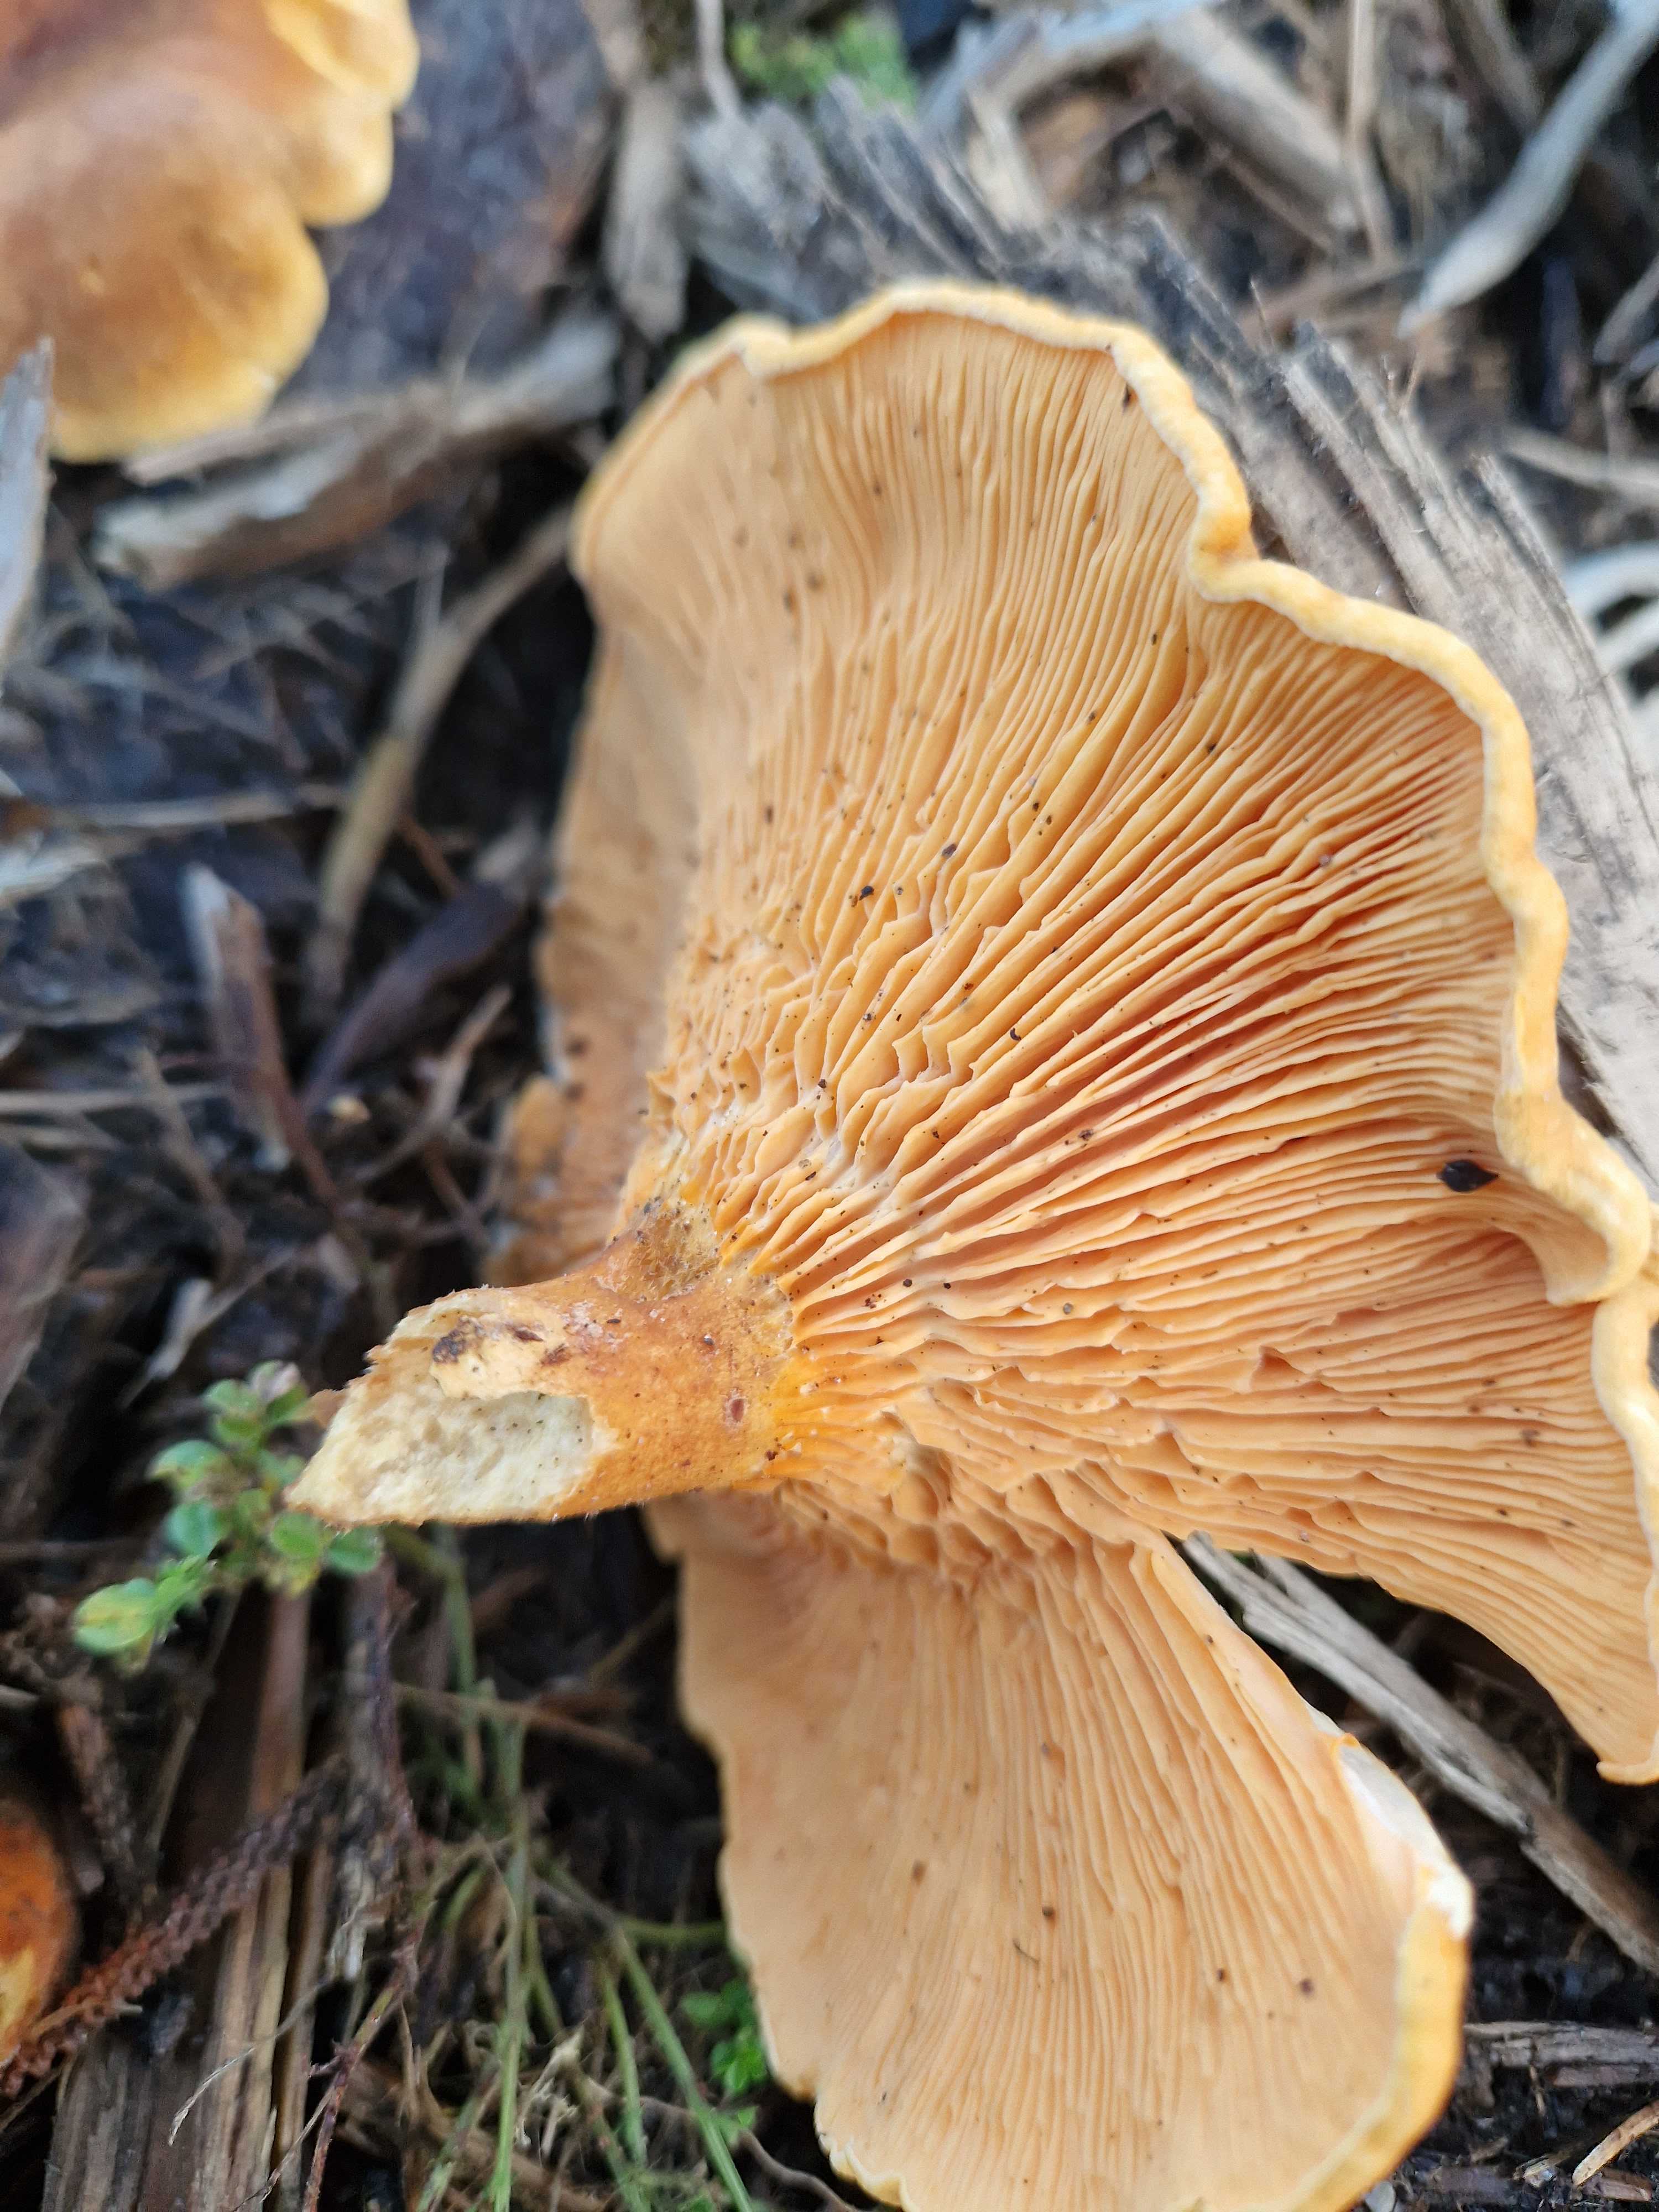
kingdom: Fungi
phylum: Basidiomycota
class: Agaricomycetes
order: Boletales
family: Hygrophoropsidaceae
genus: Hygrophoropsis
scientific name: Hygrophoropsis rufa
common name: brunfiltet orangekantarel
